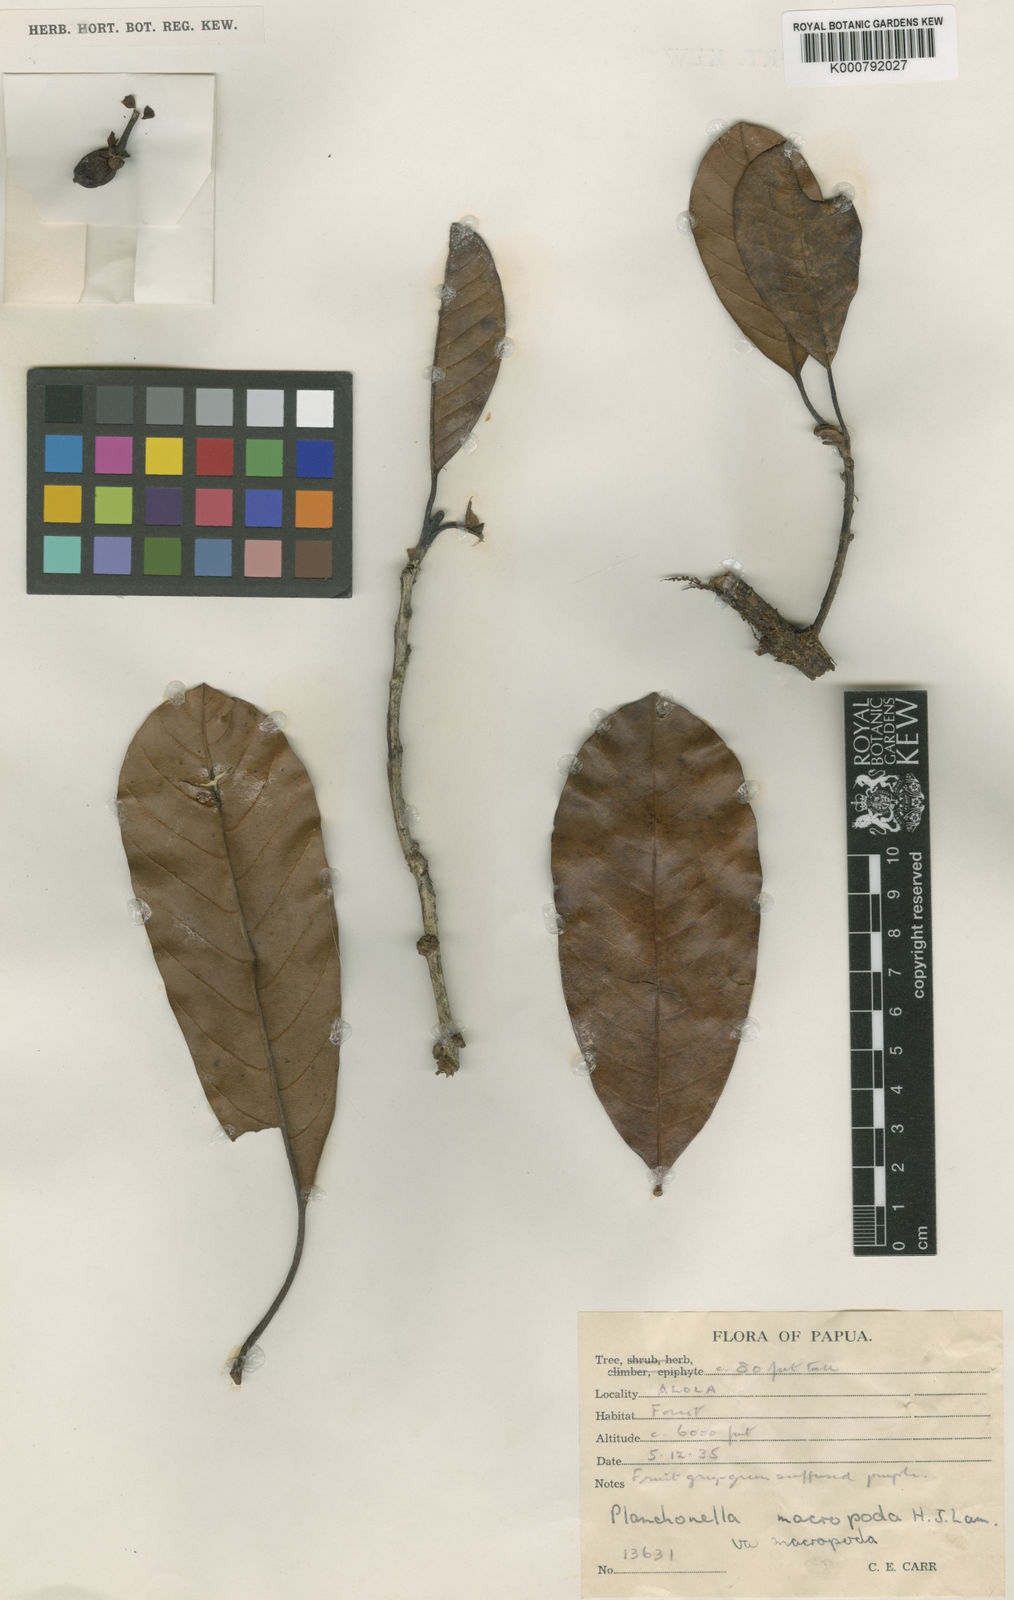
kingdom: Plantae
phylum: Tracheophyta
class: Magnoliopsida
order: Ericales
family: Sapotaceae
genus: Pleioluma
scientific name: Pleioluma macropoda
